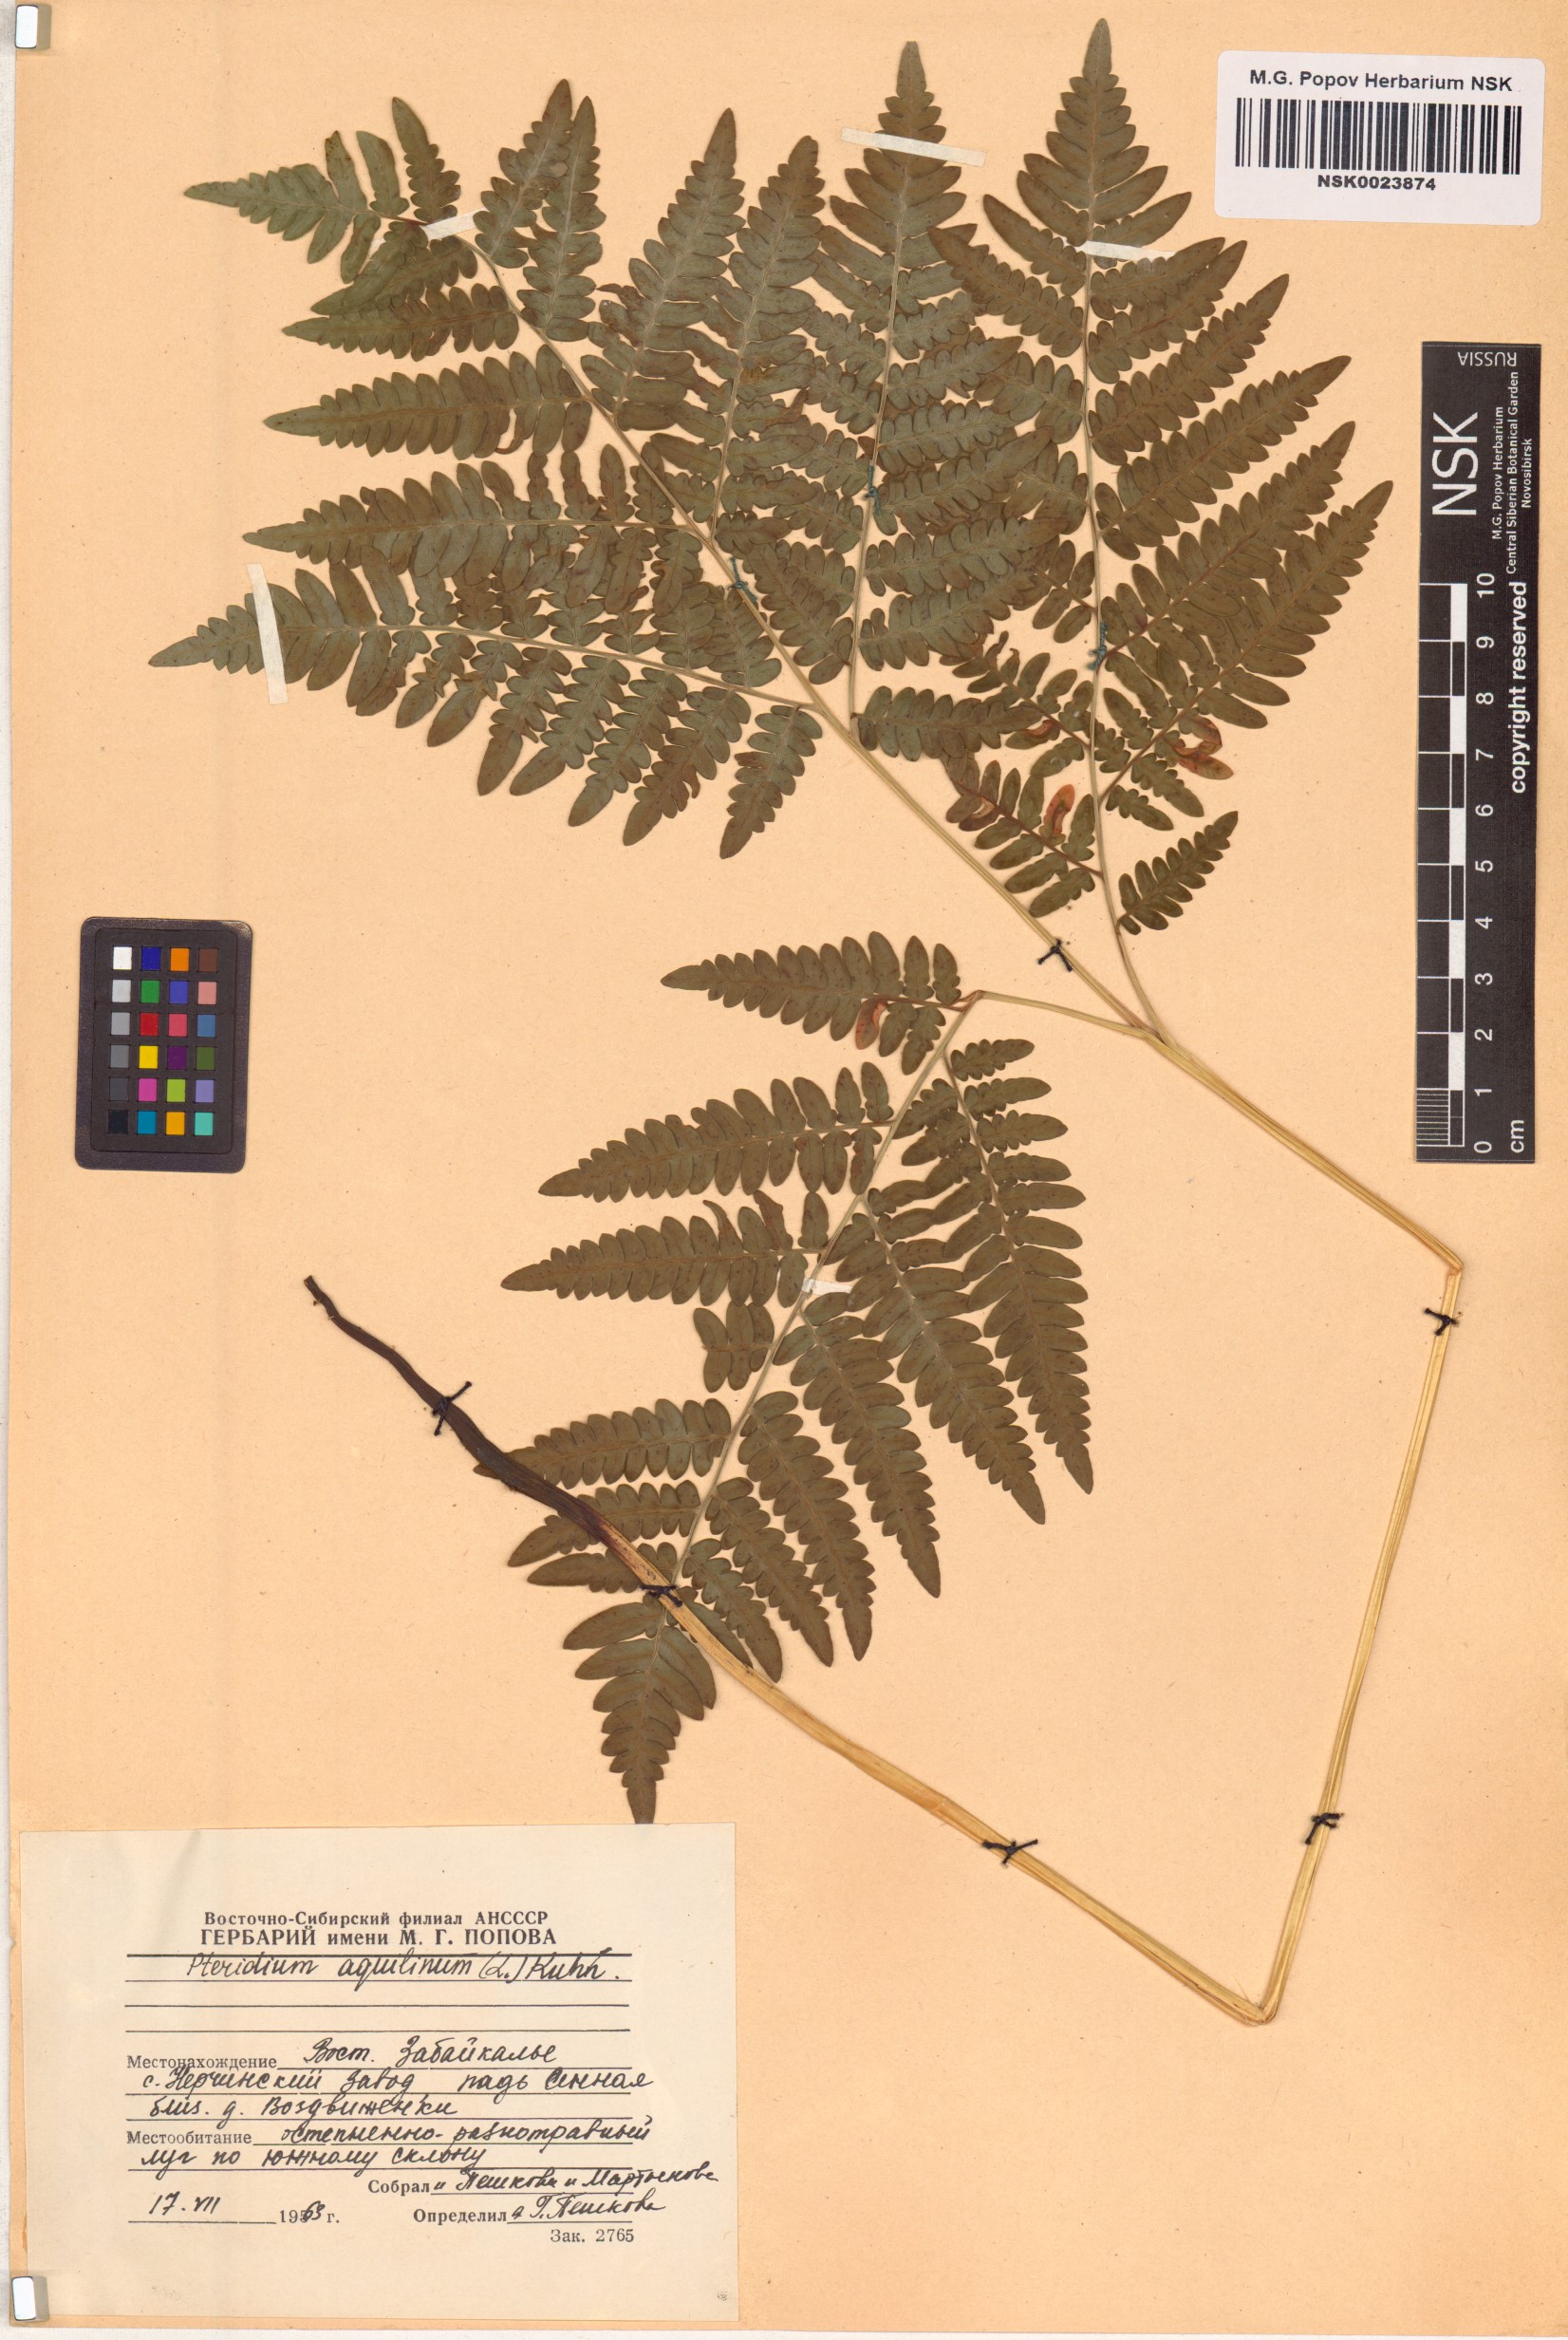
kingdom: Plantae
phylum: Tracheophyta
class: Polypodiopsida
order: Polypodiales
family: Dennstaedtiaceae
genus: Pteridium
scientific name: Pteridium aquilinum
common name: Bracken
